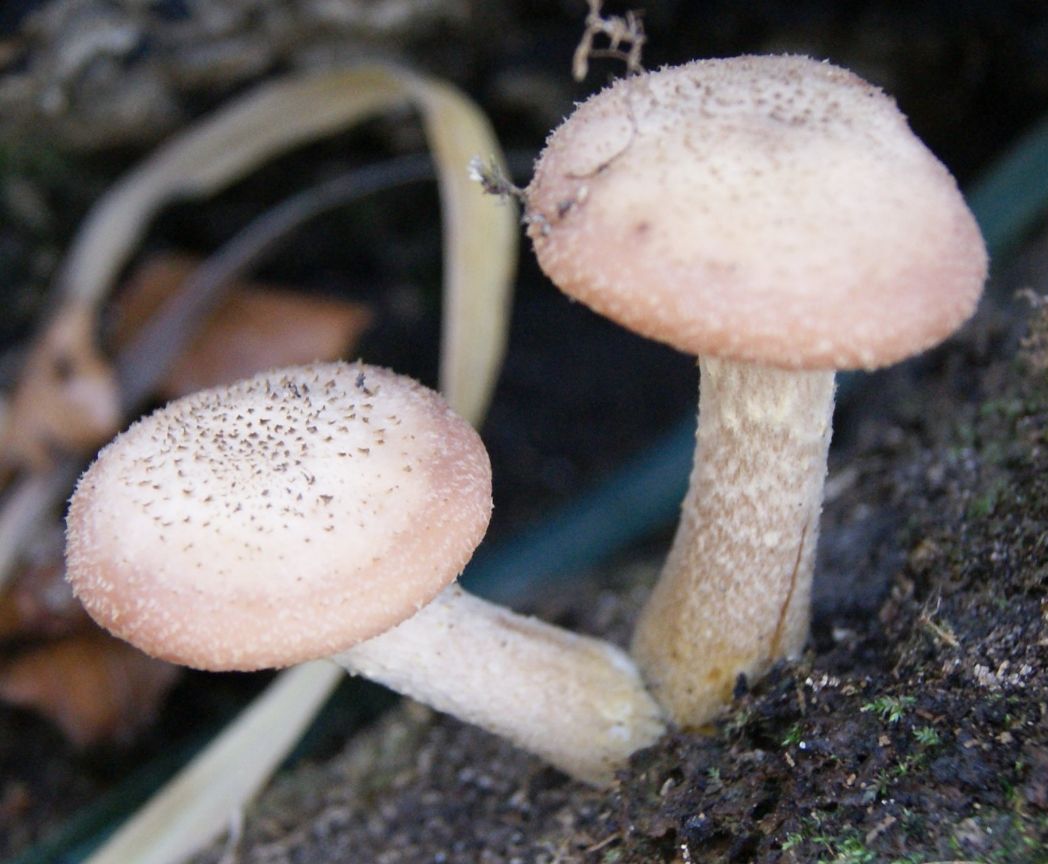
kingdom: Fungi
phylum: Basidiomycota
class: Agaricomycetes
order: Agaricales
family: Physalacriaceae
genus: Armillaria
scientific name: Armillaria cepistipes
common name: knoldfodet honningsvamp
